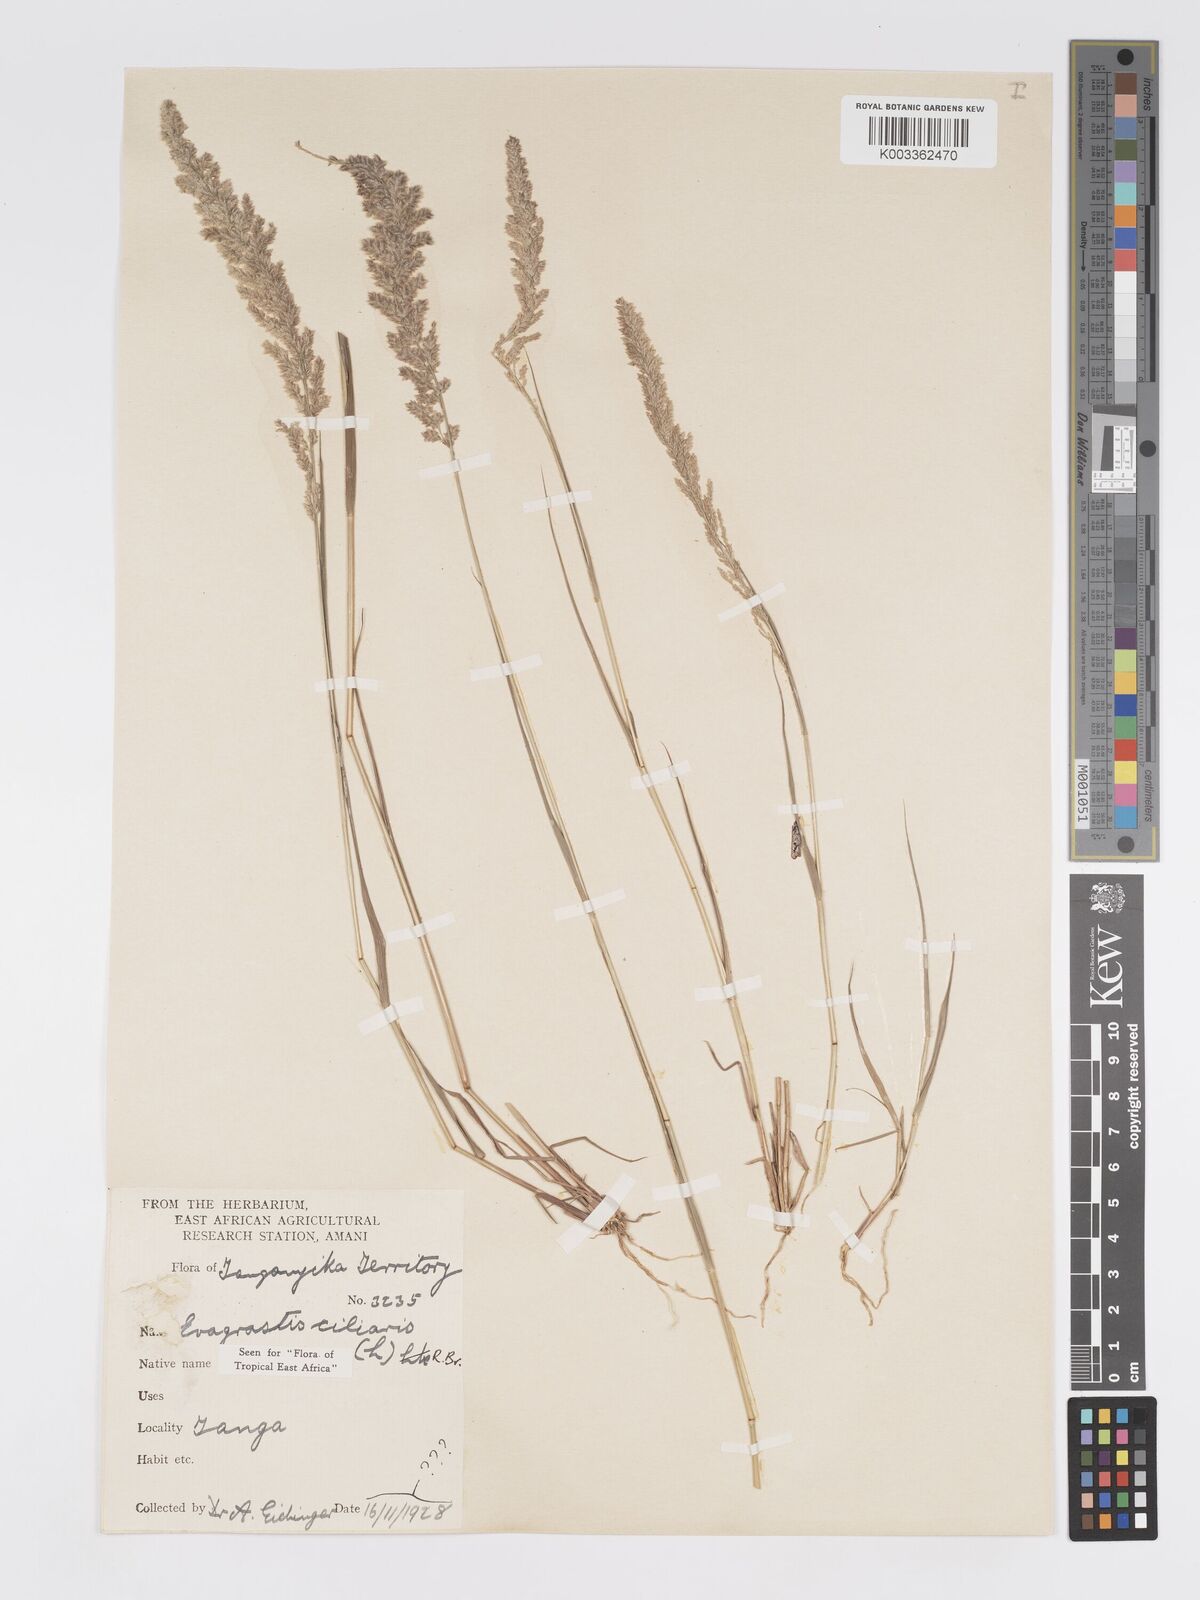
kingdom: Plantae
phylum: Tracheophyta
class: Liliopsida
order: Poales
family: Poaceae
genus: Eragrostis
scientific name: Eragrostis ciliaris
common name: Gophertail lovegrass
